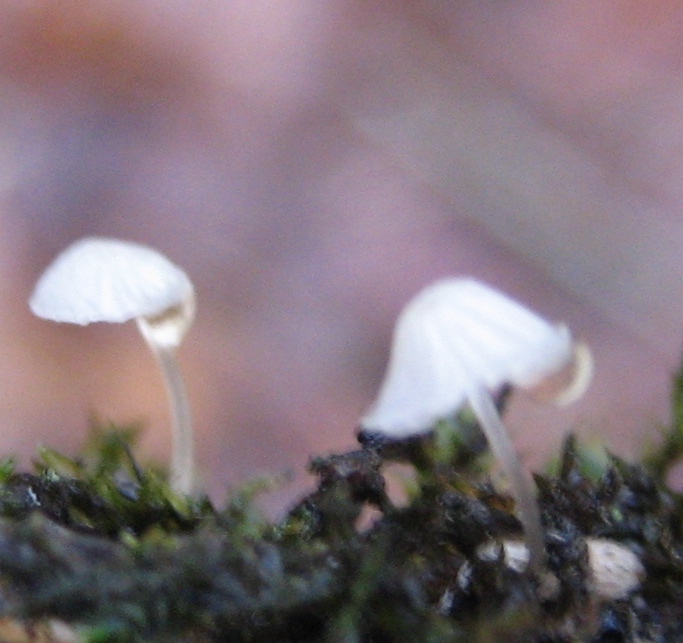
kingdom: Fungi
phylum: Basidiomycota
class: Agaricomycetes
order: Agaricales
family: Mycenaceae
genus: Mycena
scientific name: Mycena
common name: huesvamp
